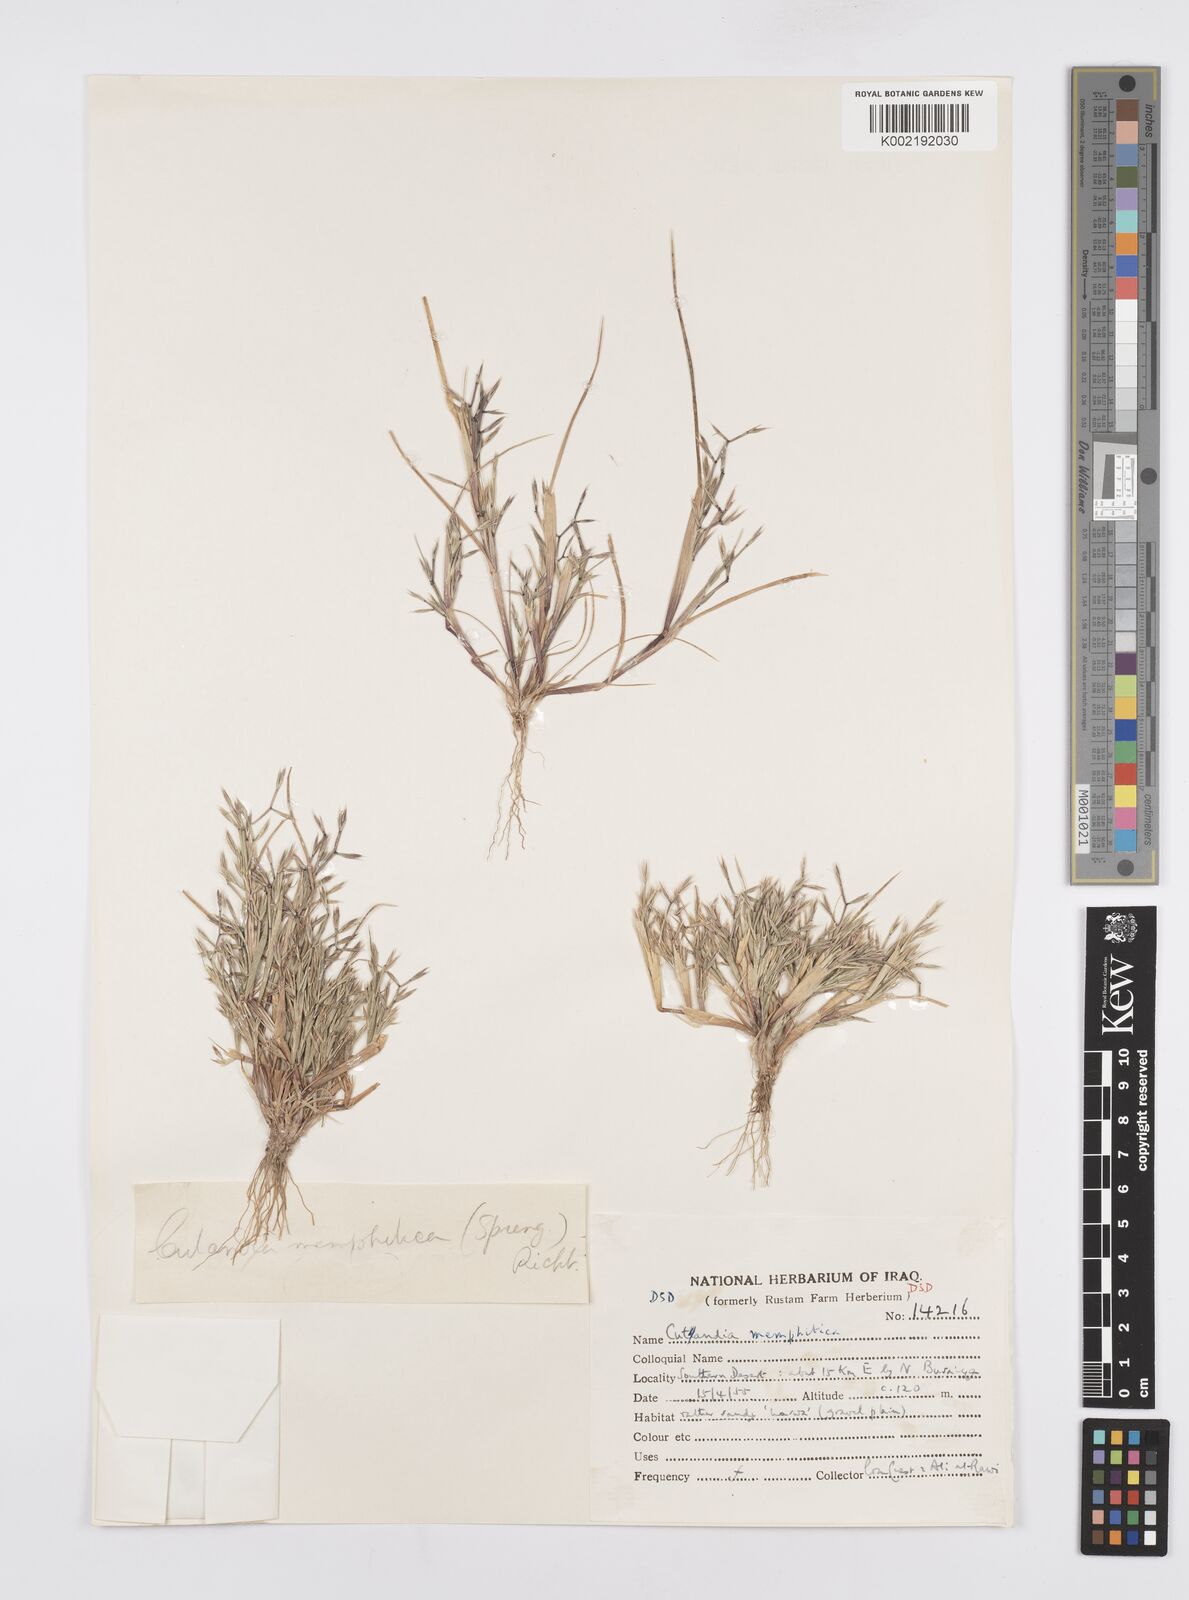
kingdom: Plantae
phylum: Tracheophyta
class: Liliopsida
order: Poales
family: Poaceae
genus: Cutandia
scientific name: Cutandia memphitica
